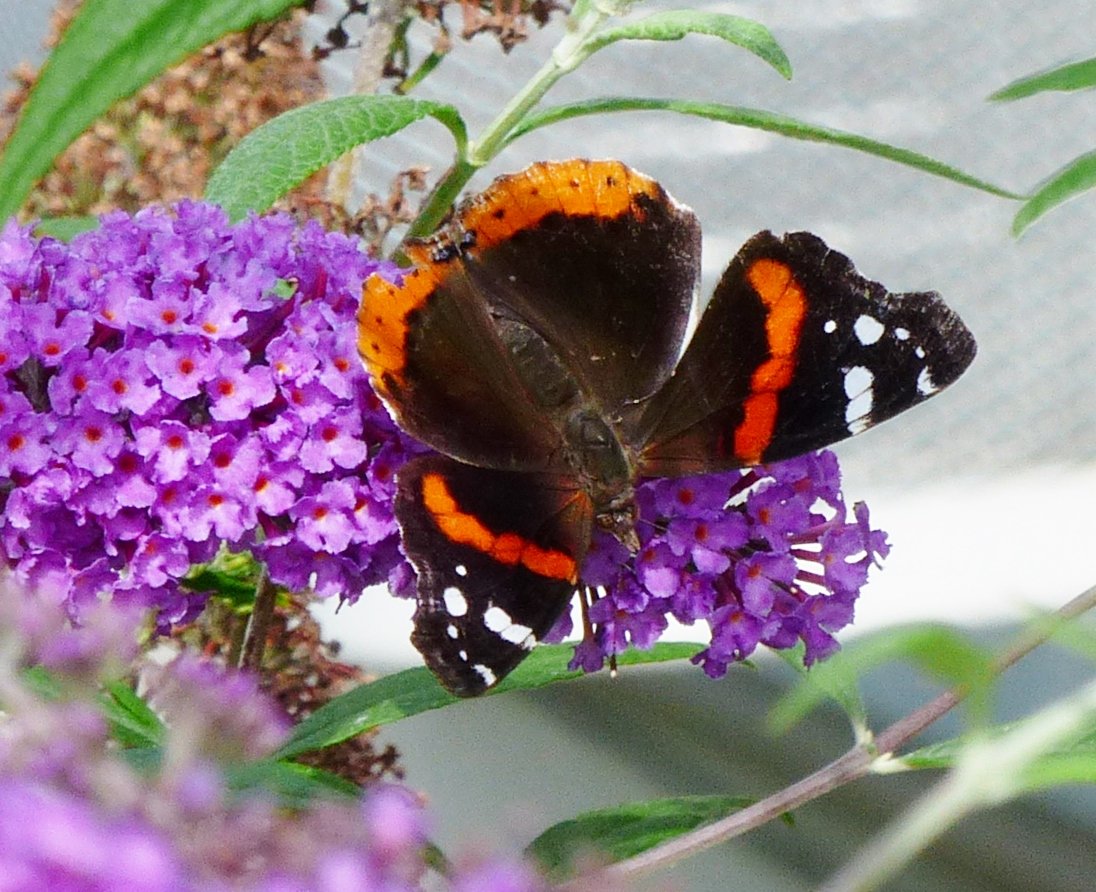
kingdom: Animalia
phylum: Arthropoda
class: Insecta
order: Lepidoptera
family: Nymphalidae
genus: Vanessa
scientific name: Vanessa atalanta
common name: Red Admiral
